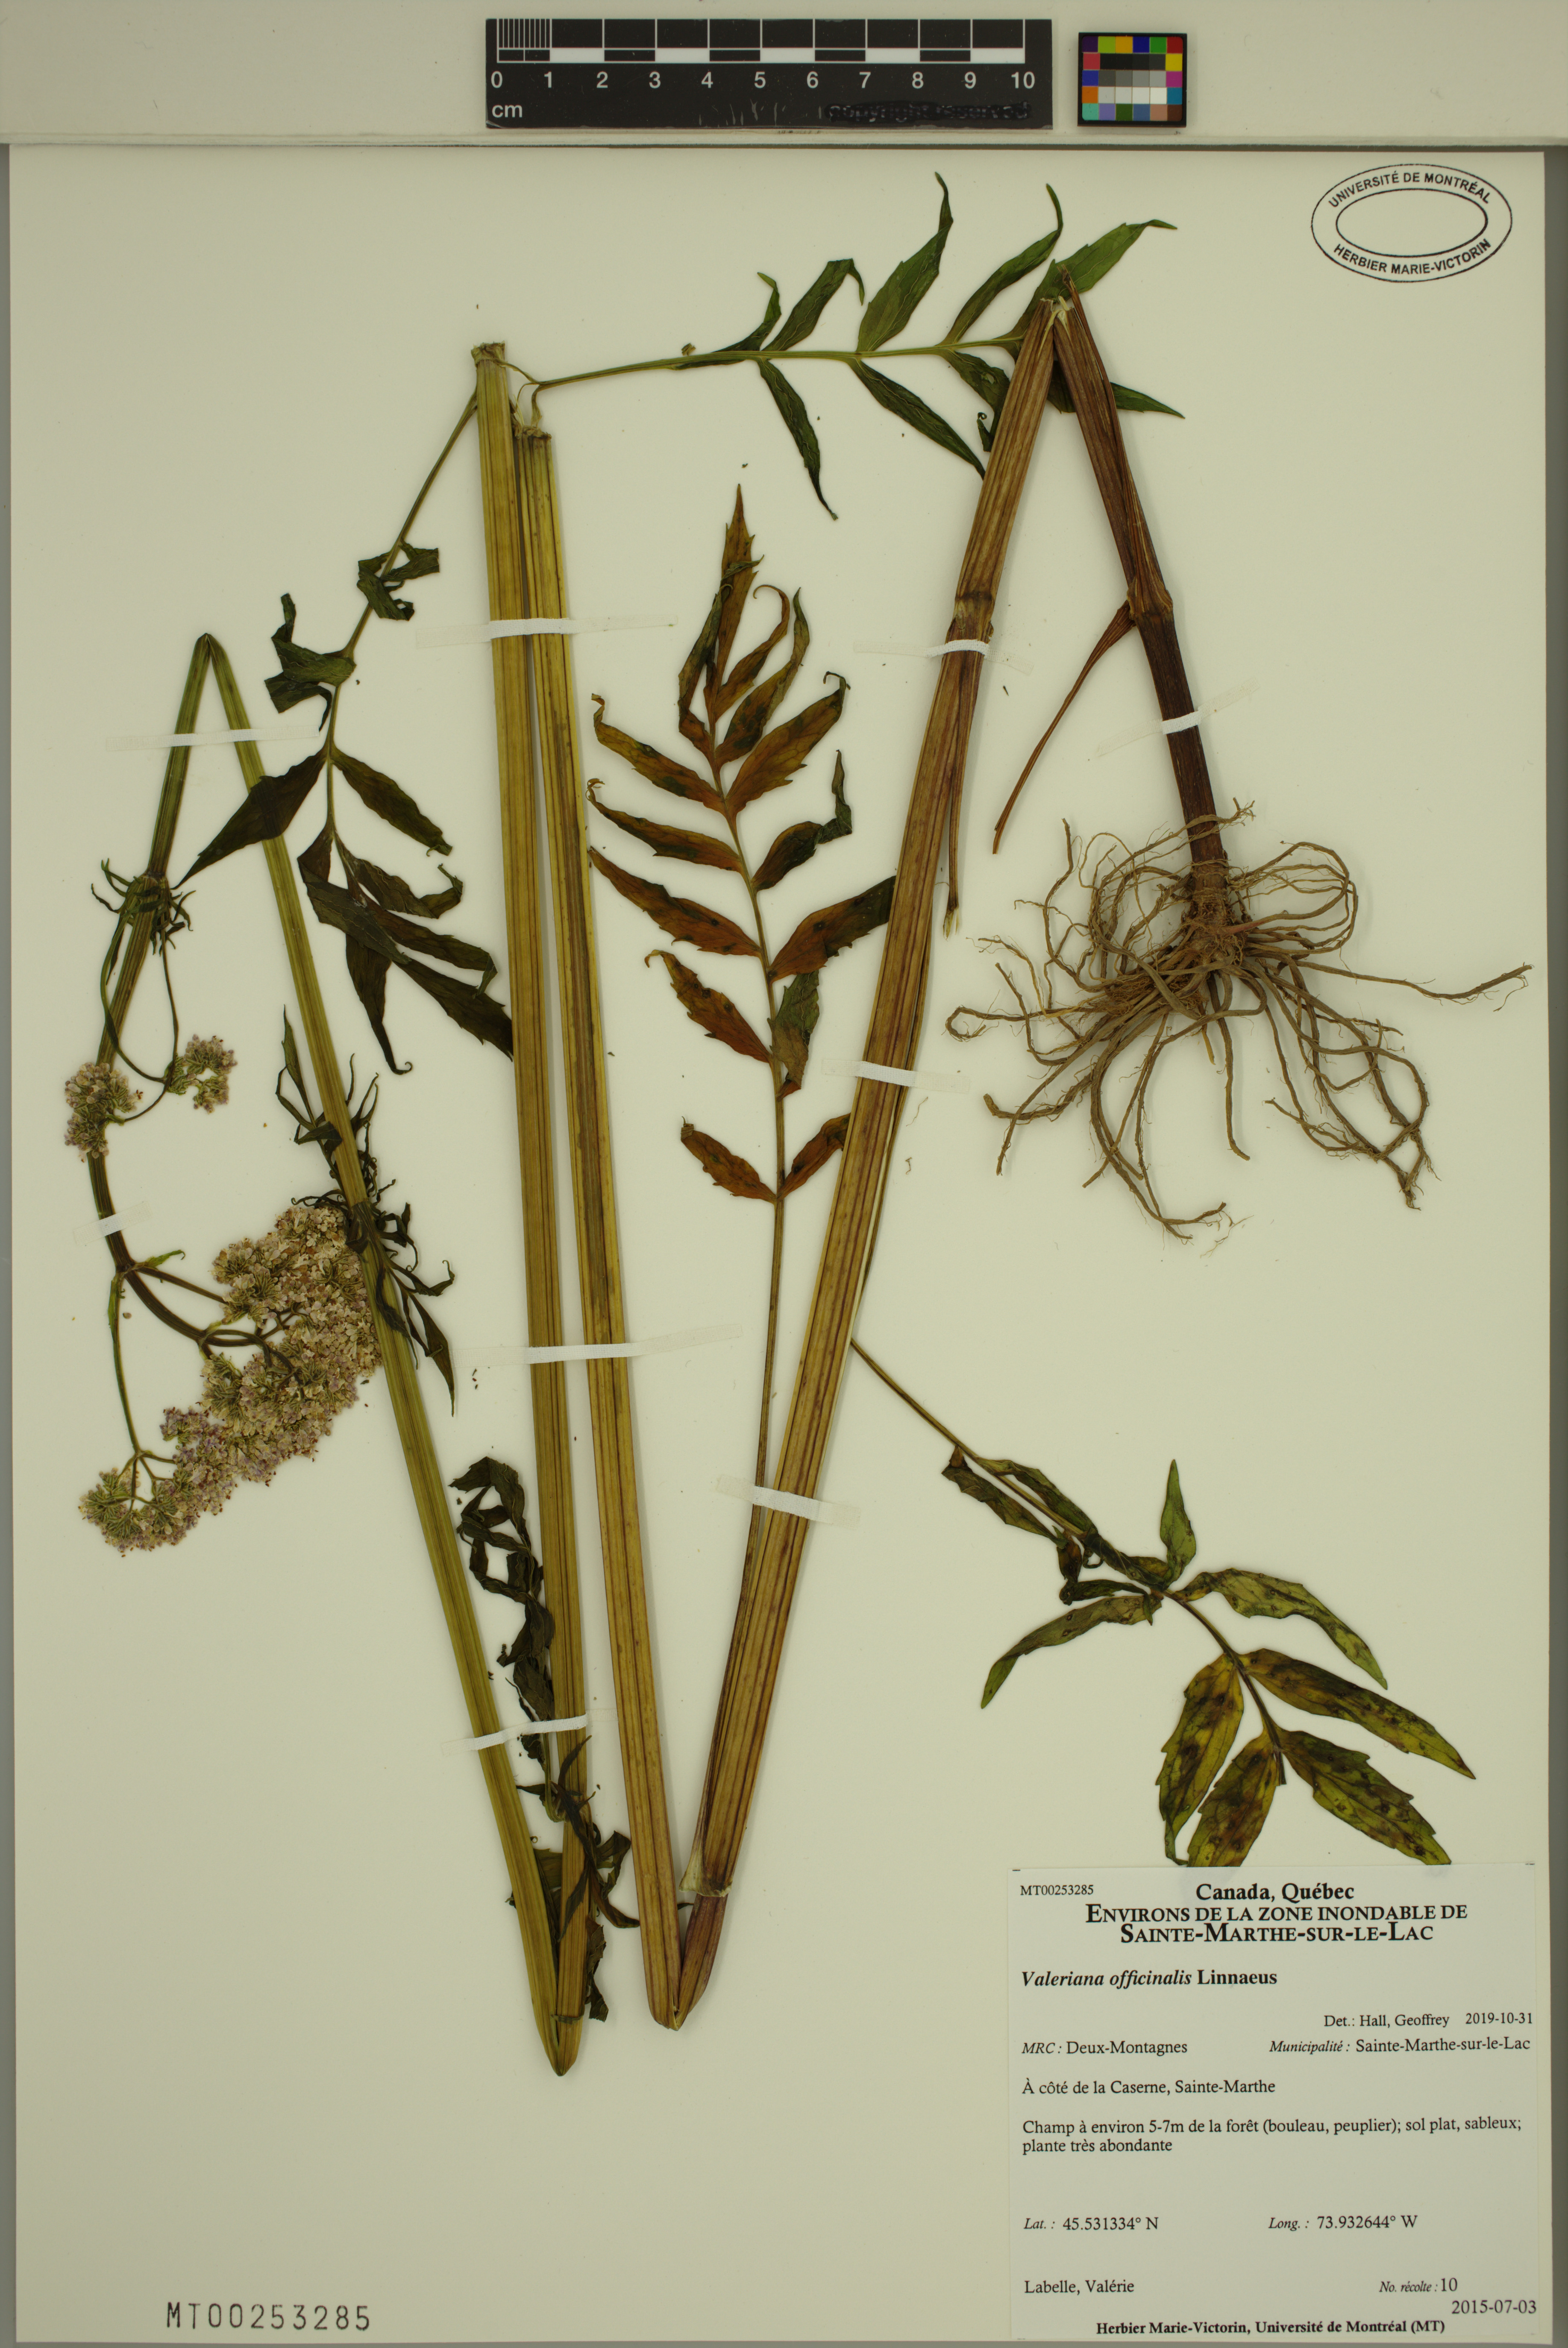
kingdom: Plantae
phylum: Tracheophyta
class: Magnoliopsida
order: Dipsacales
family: Caprifoliaceae
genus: Valeriana
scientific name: Valeriana officinalis
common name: Common valerian
